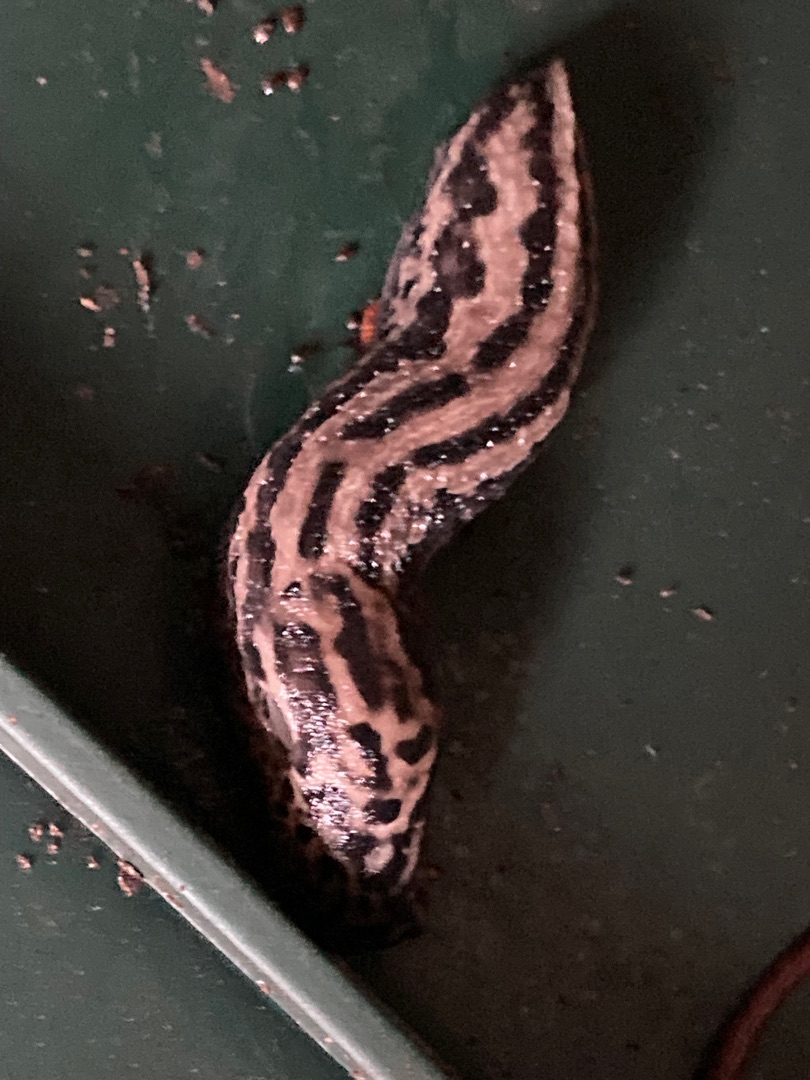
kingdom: Animalia
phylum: Mollusca
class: Gastropoda
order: Stylommatophora
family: Limacidae
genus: Limax
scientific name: Limax maximus
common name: Pantersnegl
